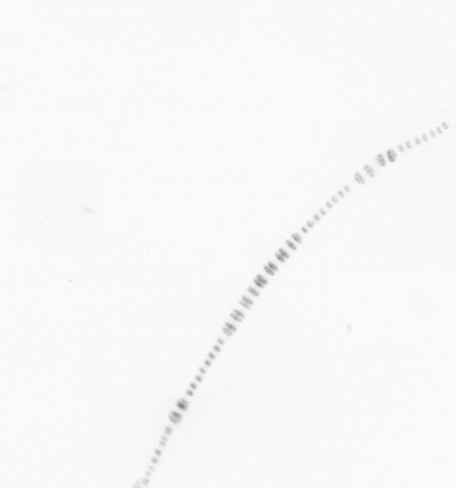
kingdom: Chromista
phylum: Ochrophyta
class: Bacillariophyceae
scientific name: Bacillariophyceae
